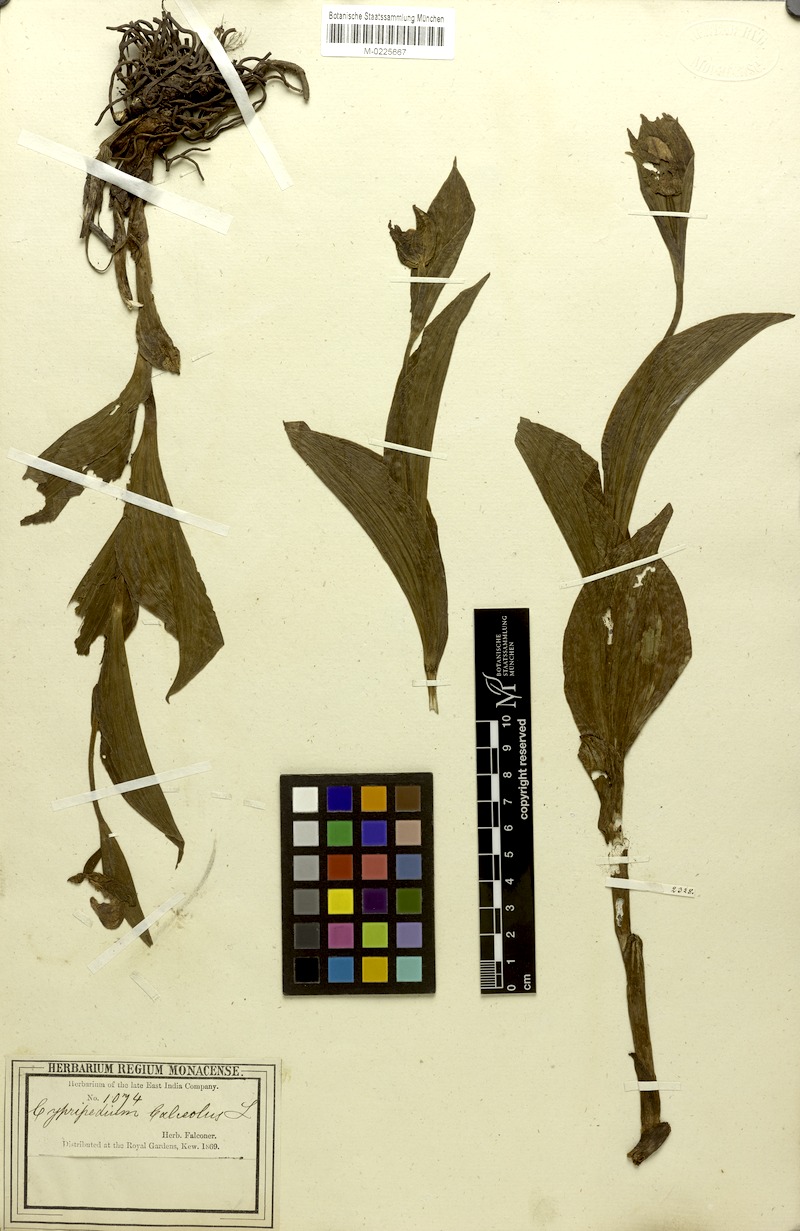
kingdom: Plantae
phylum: Tracheophyta
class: Liliopsida
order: Asparagales
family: Orchidaceae
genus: Cypripedium
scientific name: Cypripedium cordigerum
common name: Heart-shaped lip cypripedium
